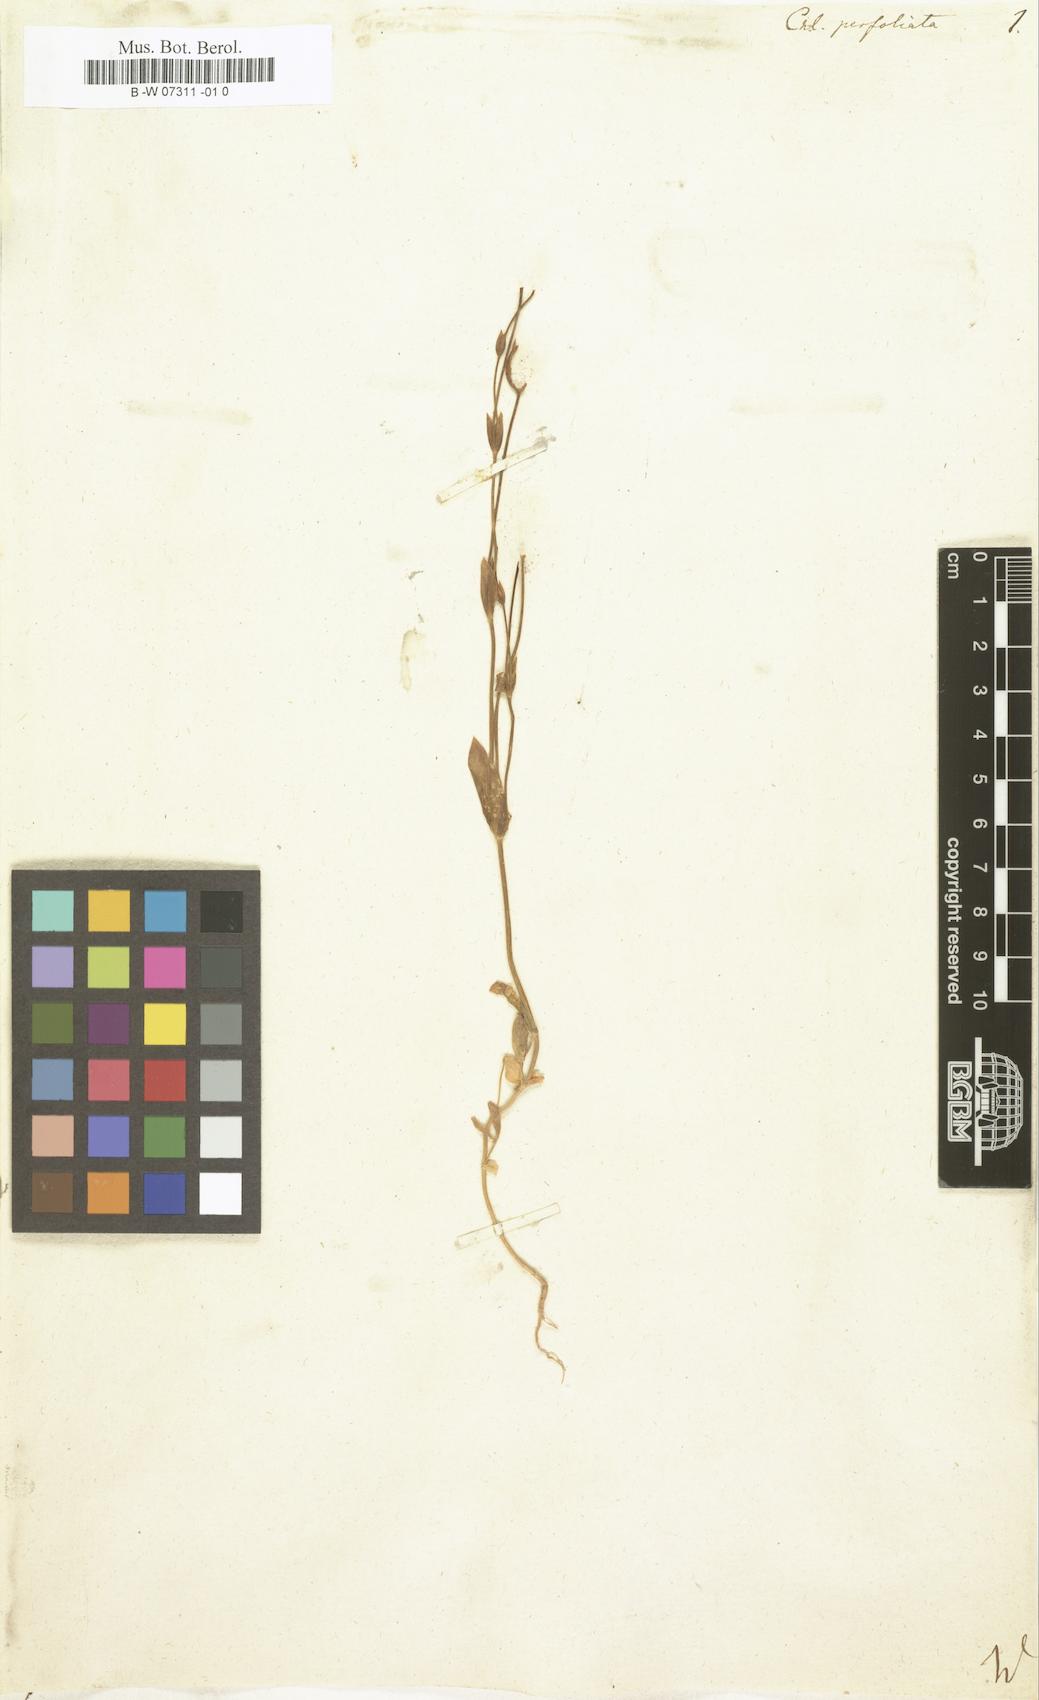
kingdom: Plantae
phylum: Tracheophyta
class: Magnoliopsida
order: Gentianales
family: Gentianaceae
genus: Blackstonia
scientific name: Blackstonia
